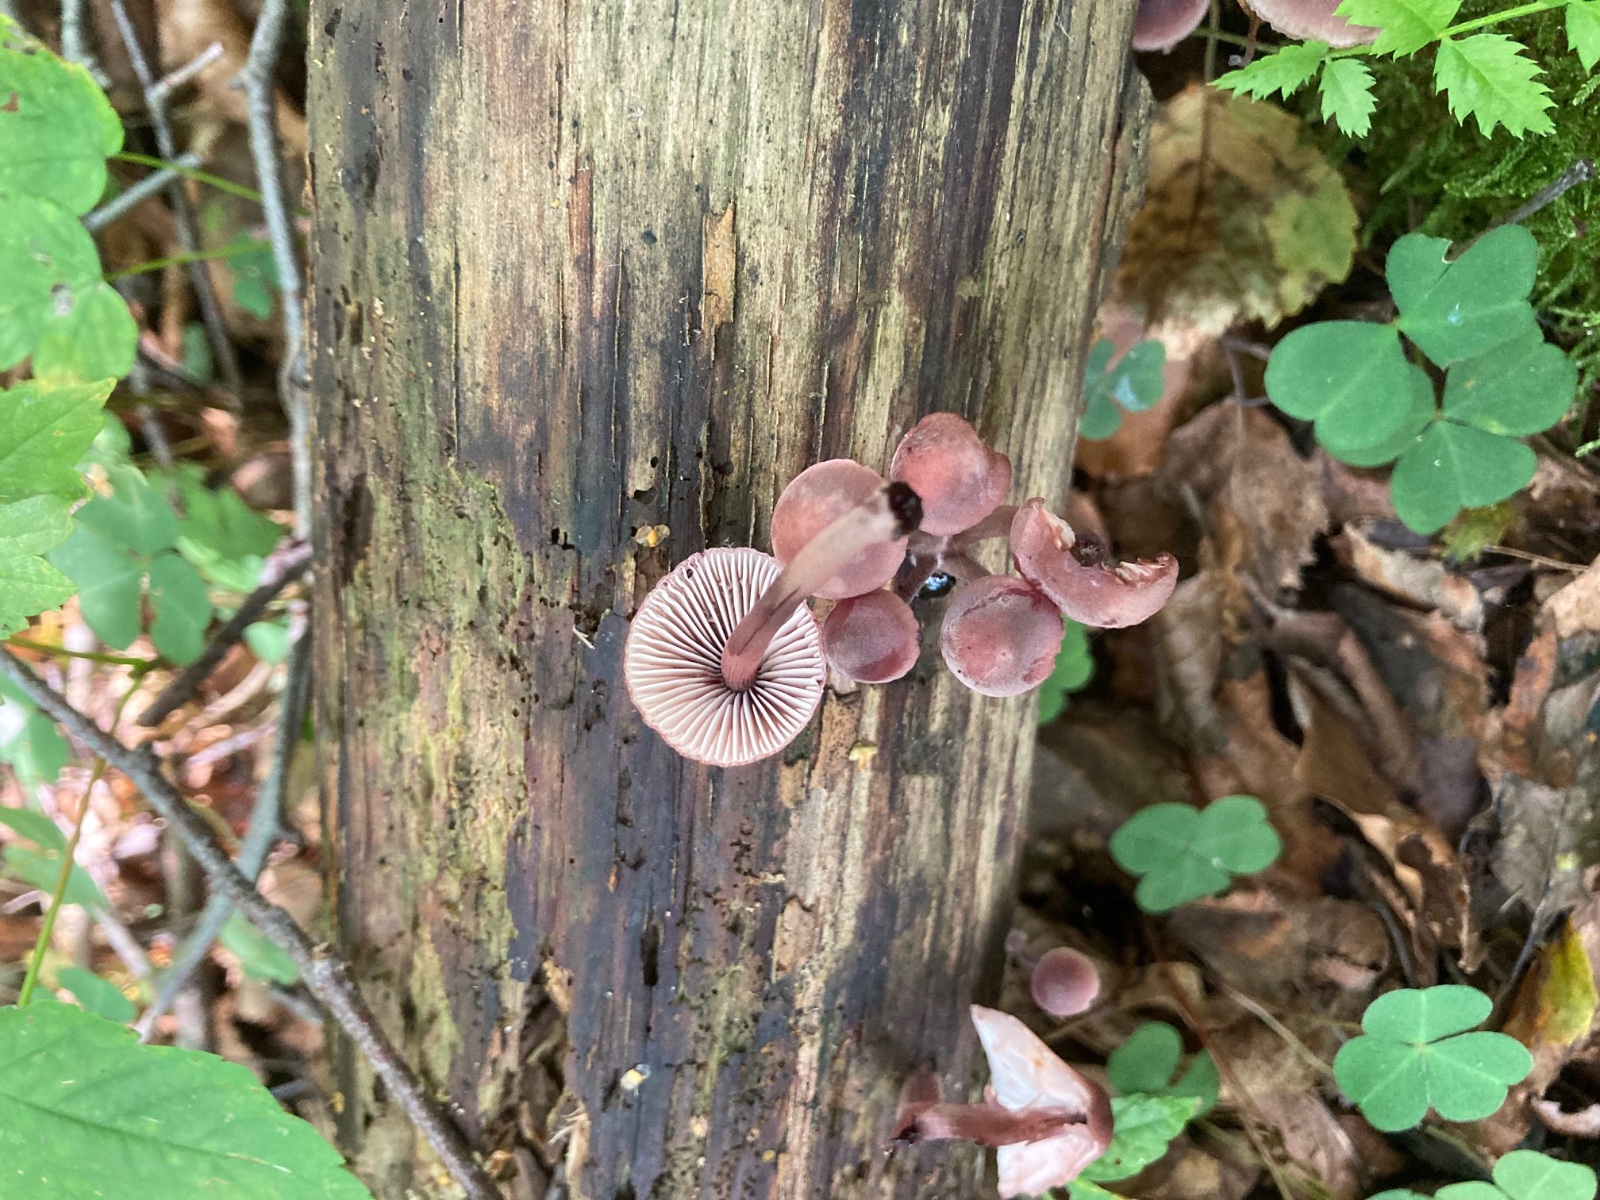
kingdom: Fungi
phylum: Basidiomycota
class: Agaricomycetes
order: Agaricales
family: Mycenaceae
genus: Mycena
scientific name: Mycena haematopus
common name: blødende huesvamp
